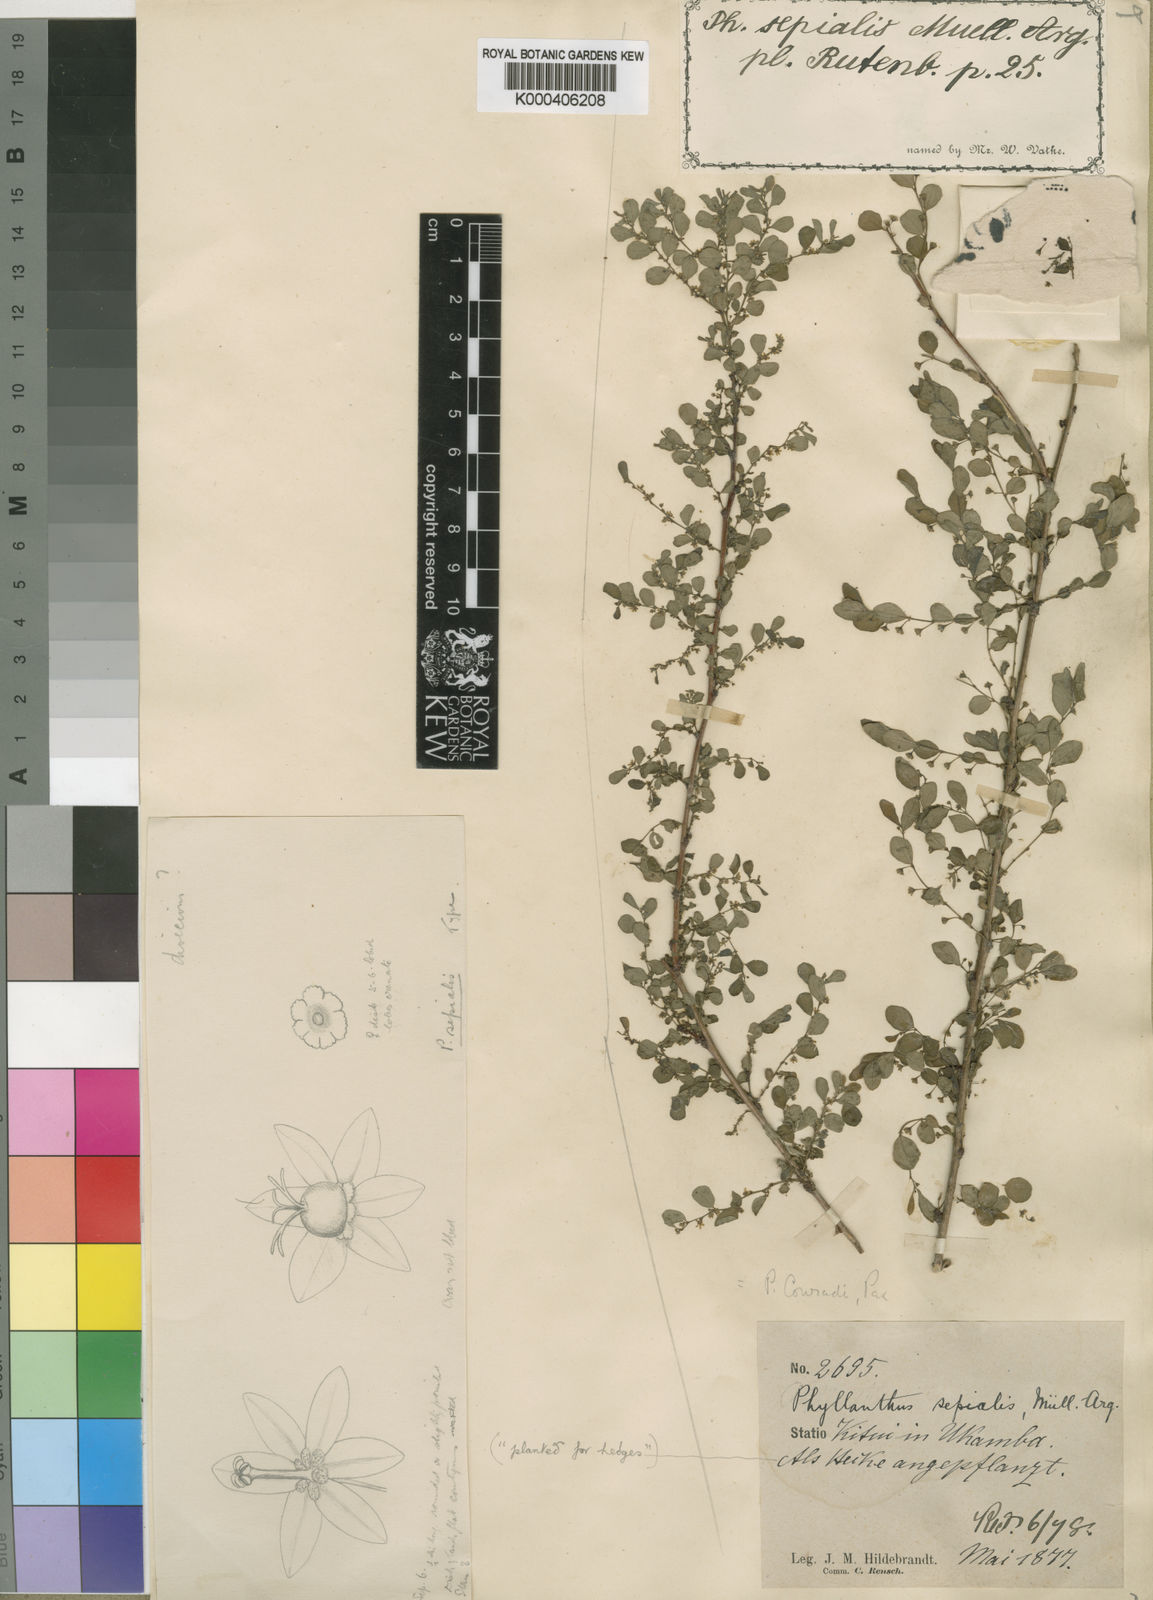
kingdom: Plantae
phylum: Tracheophyta
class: Magnoliopsida
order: Malpighiales
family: Phyllanthaceae
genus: Phyllanthus
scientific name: Phyllanthus
